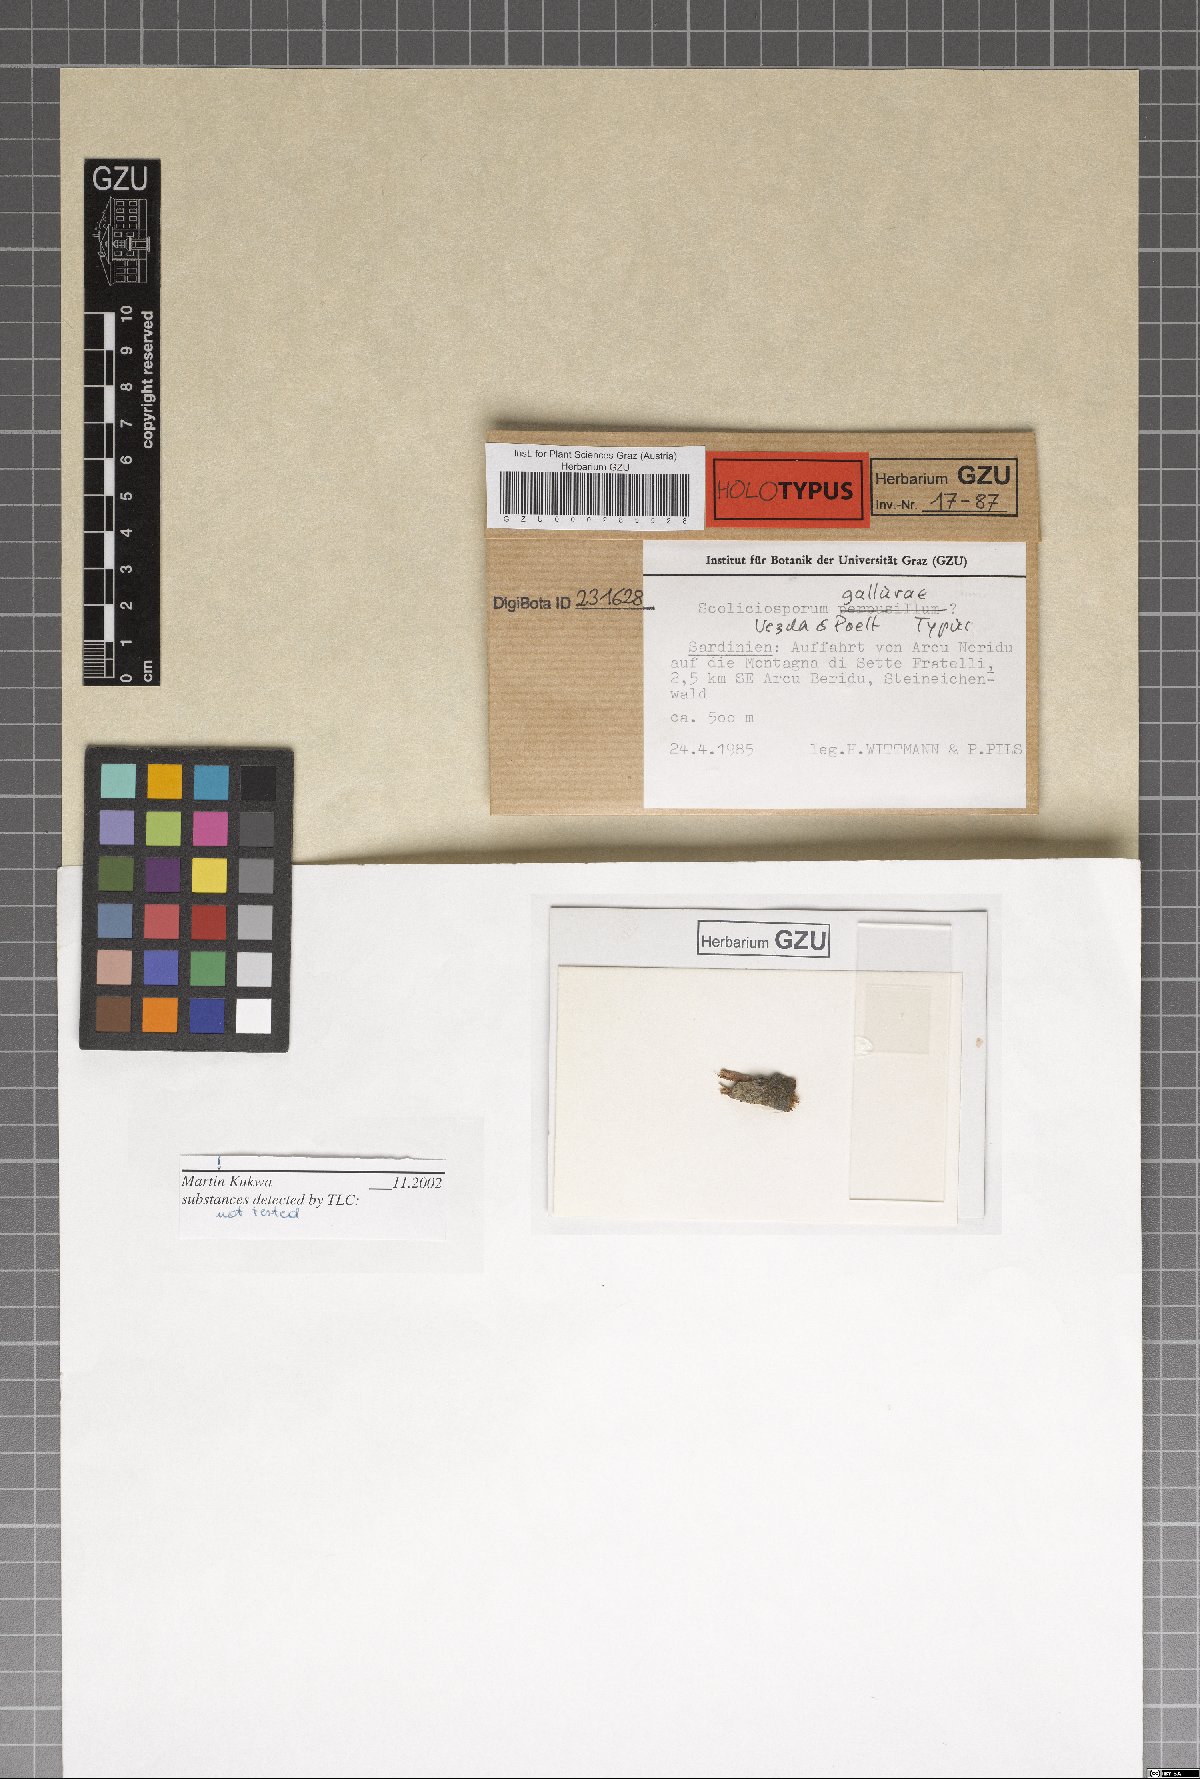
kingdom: Fungi
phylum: Ascomycota
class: Lecanoromycetes
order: Lecanorales
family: Scoliciosporaceae
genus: Scoliciosporum
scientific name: Scoliciosporum gallurae
